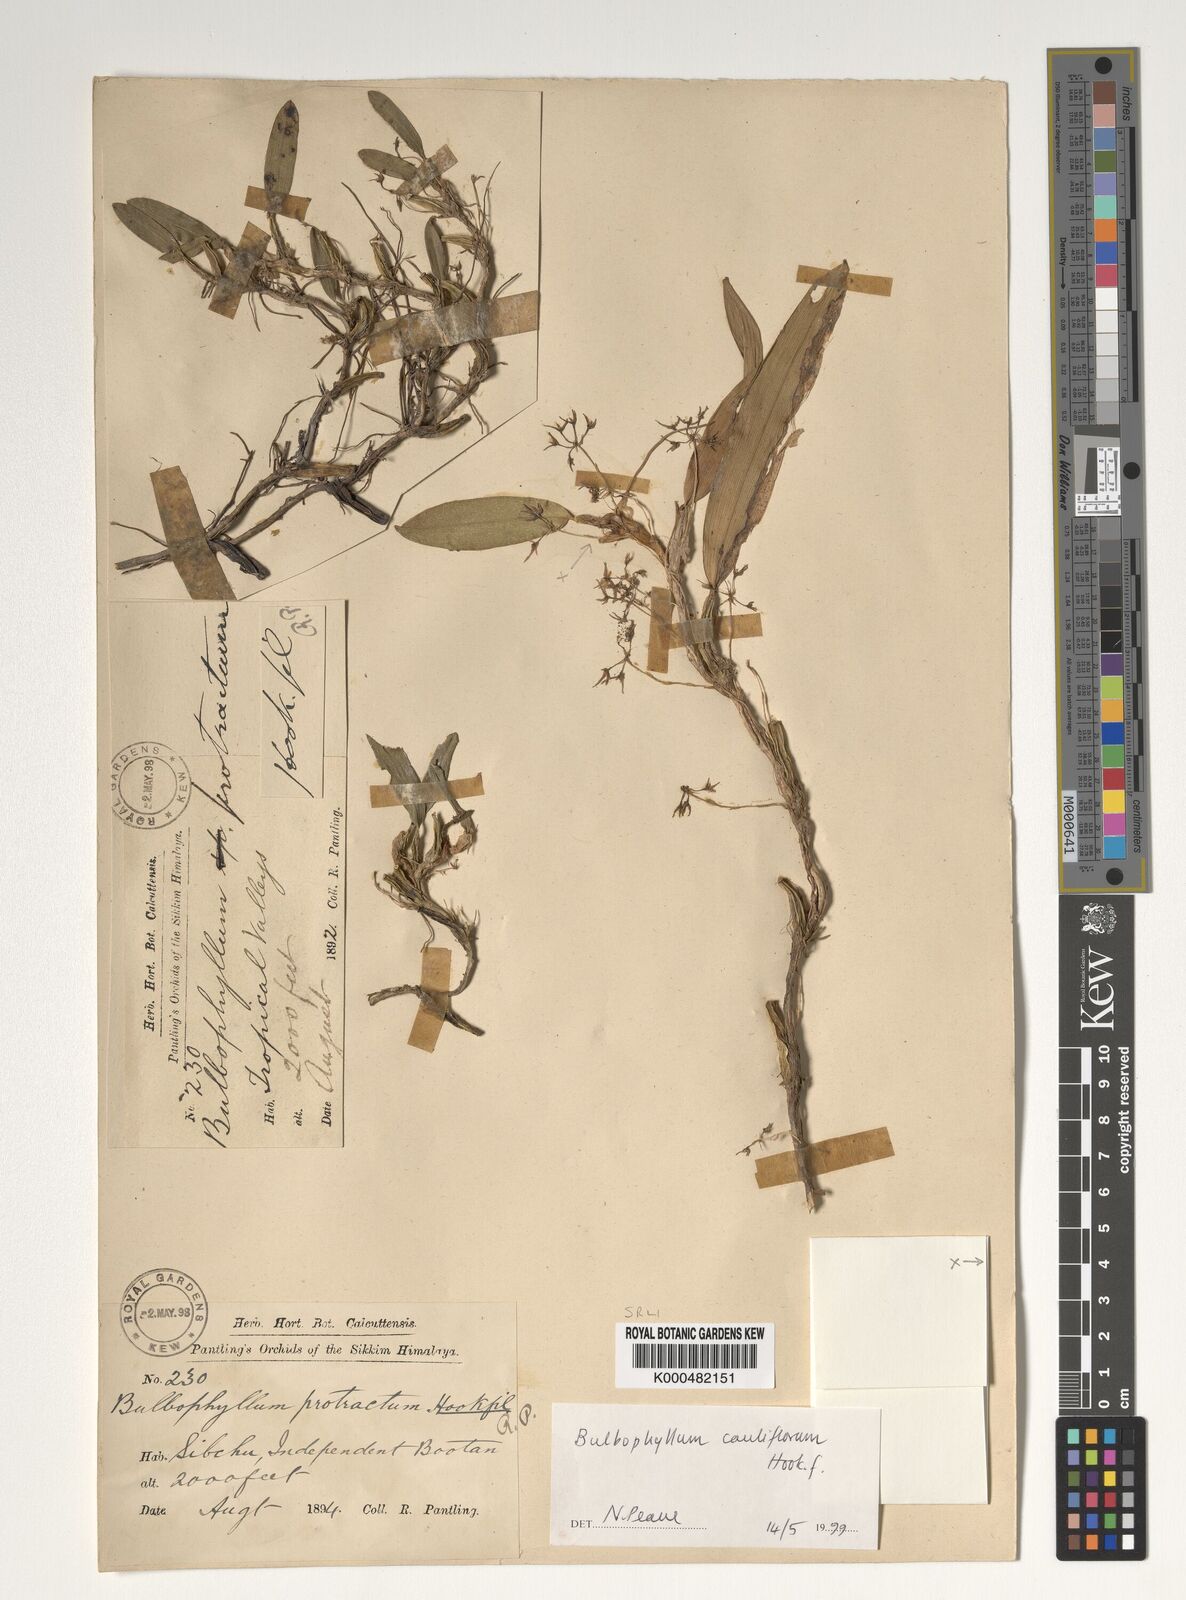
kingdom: Plantae
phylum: Tracheophyta
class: Liliopsida
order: Asparagales
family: Orchidaceae
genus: Bulbophyllum
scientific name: Bulbophyllum cauliflorum
